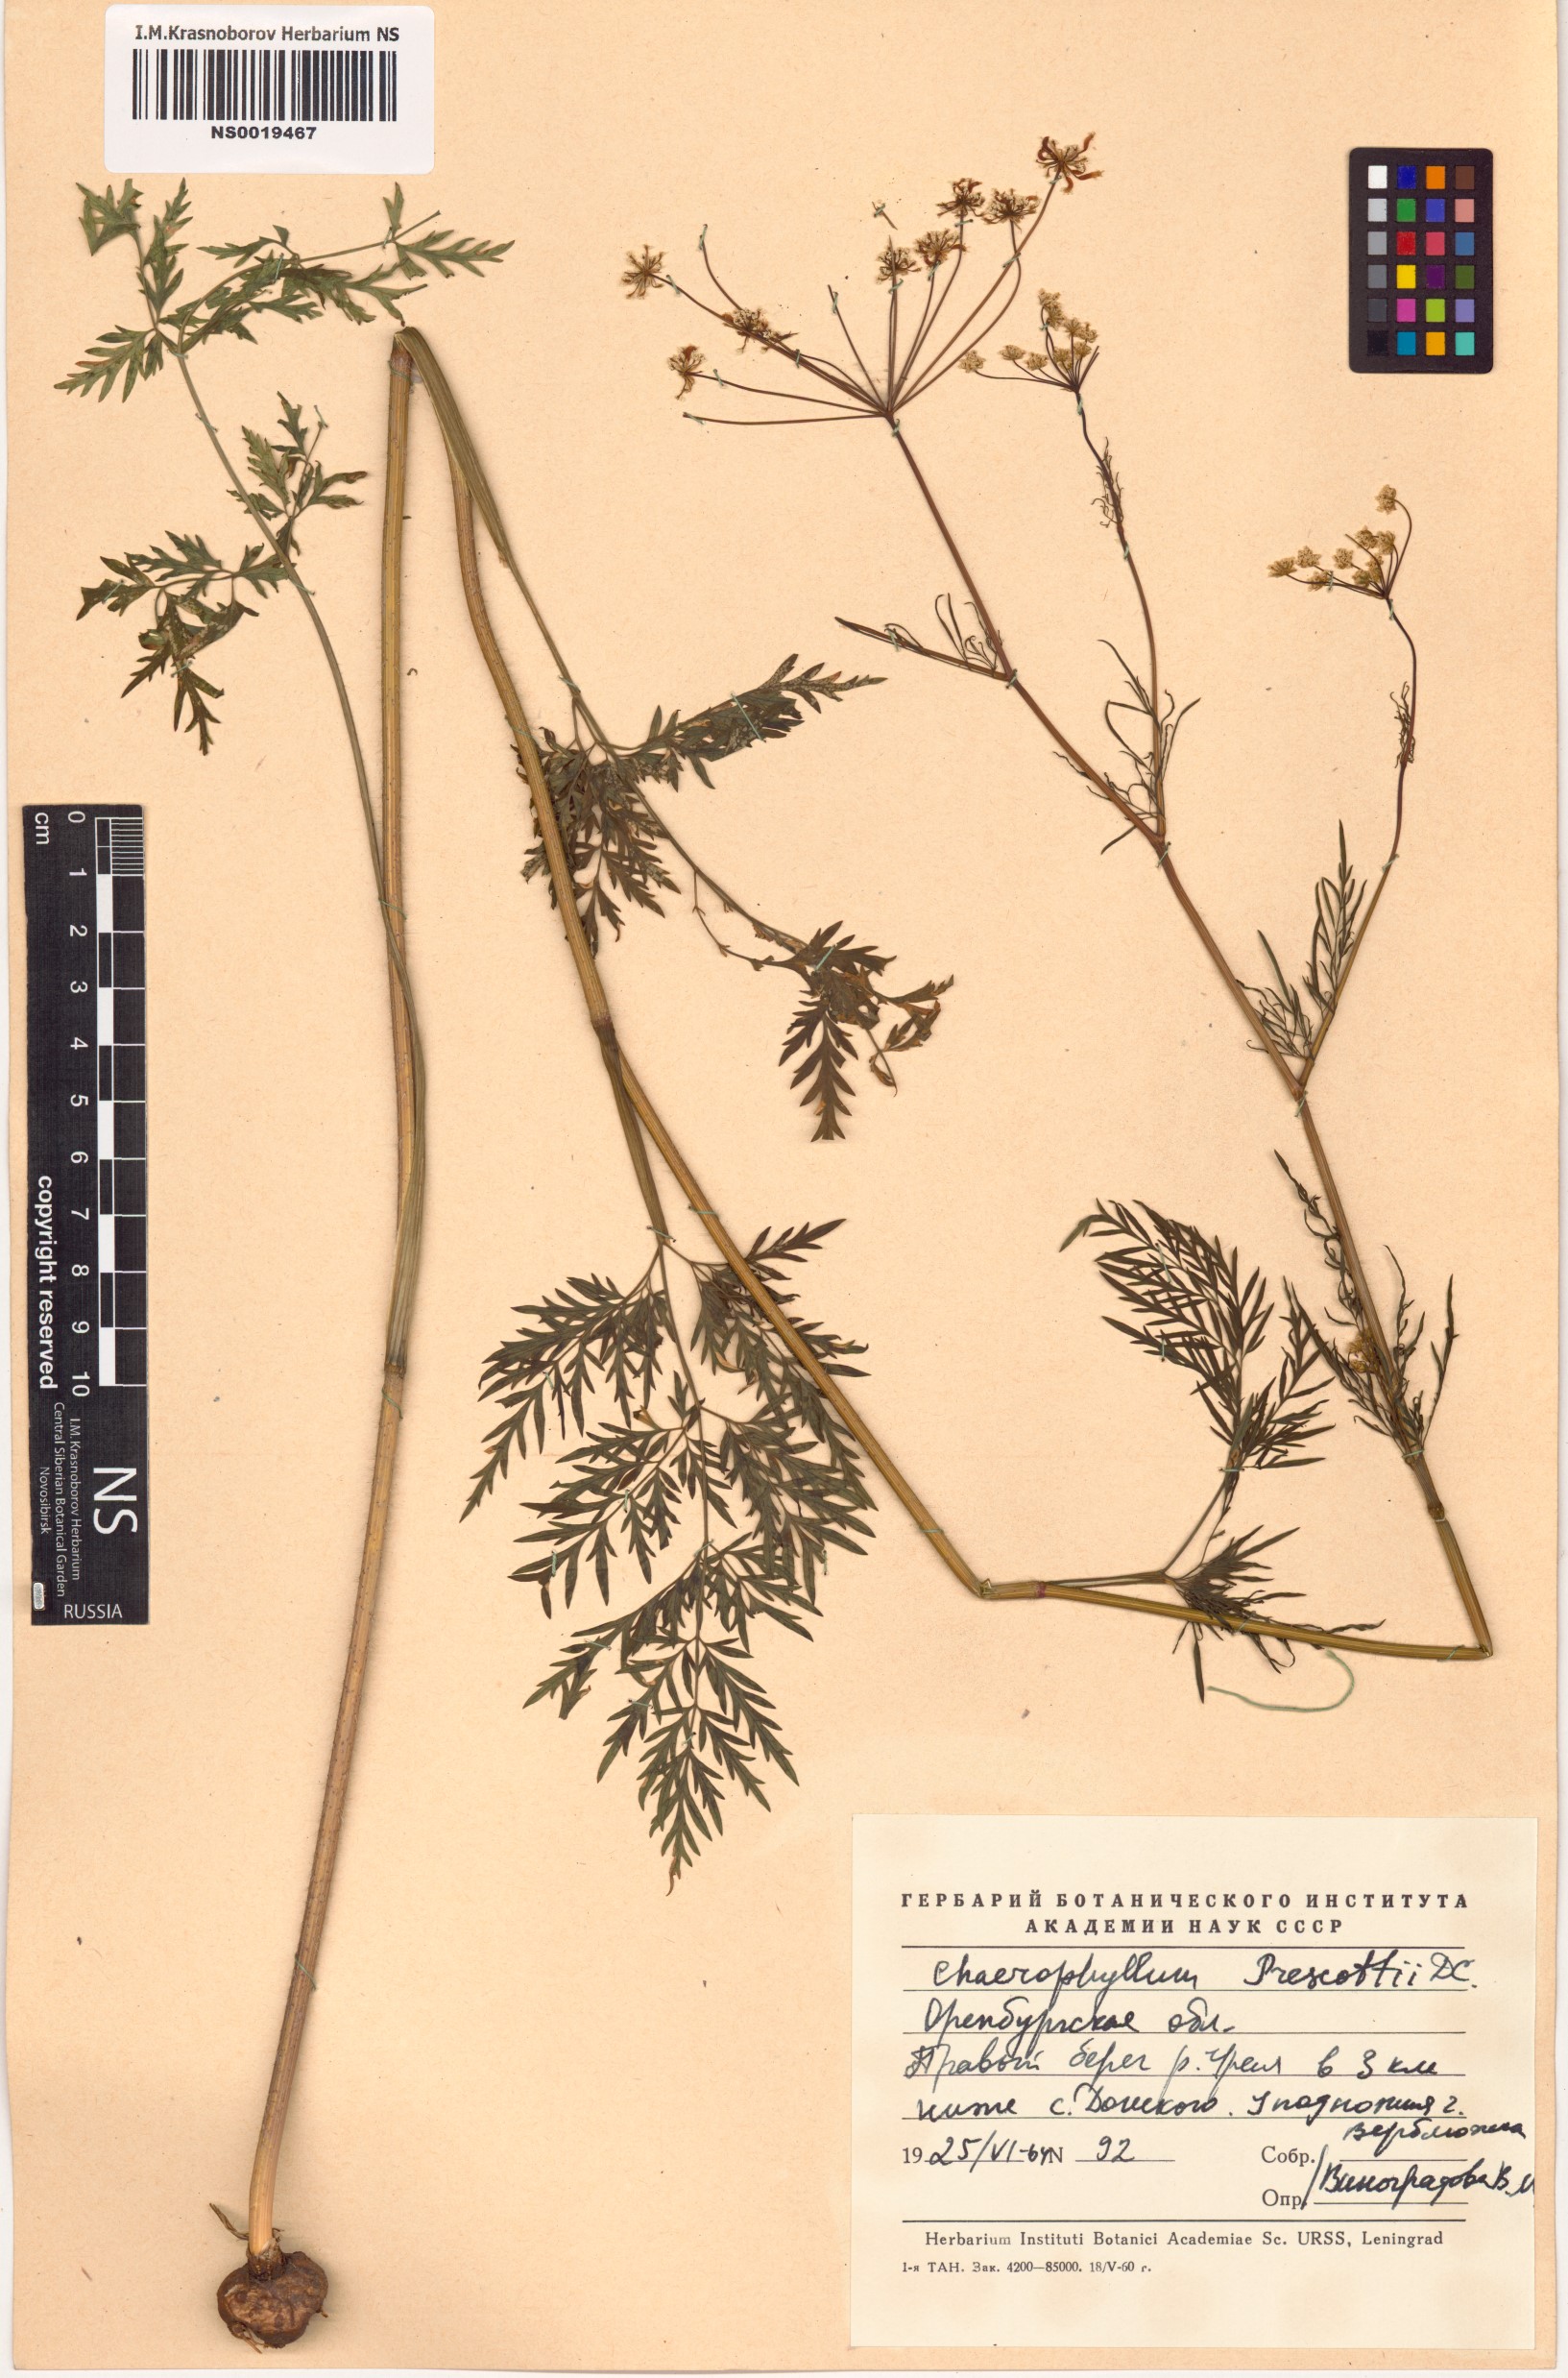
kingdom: Plantae
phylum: Tracheophyta
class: Magnoliopsida
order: Apiales
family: Apiaceae
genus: Chaerophyllum
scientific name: Chaerophyllum prescottii
